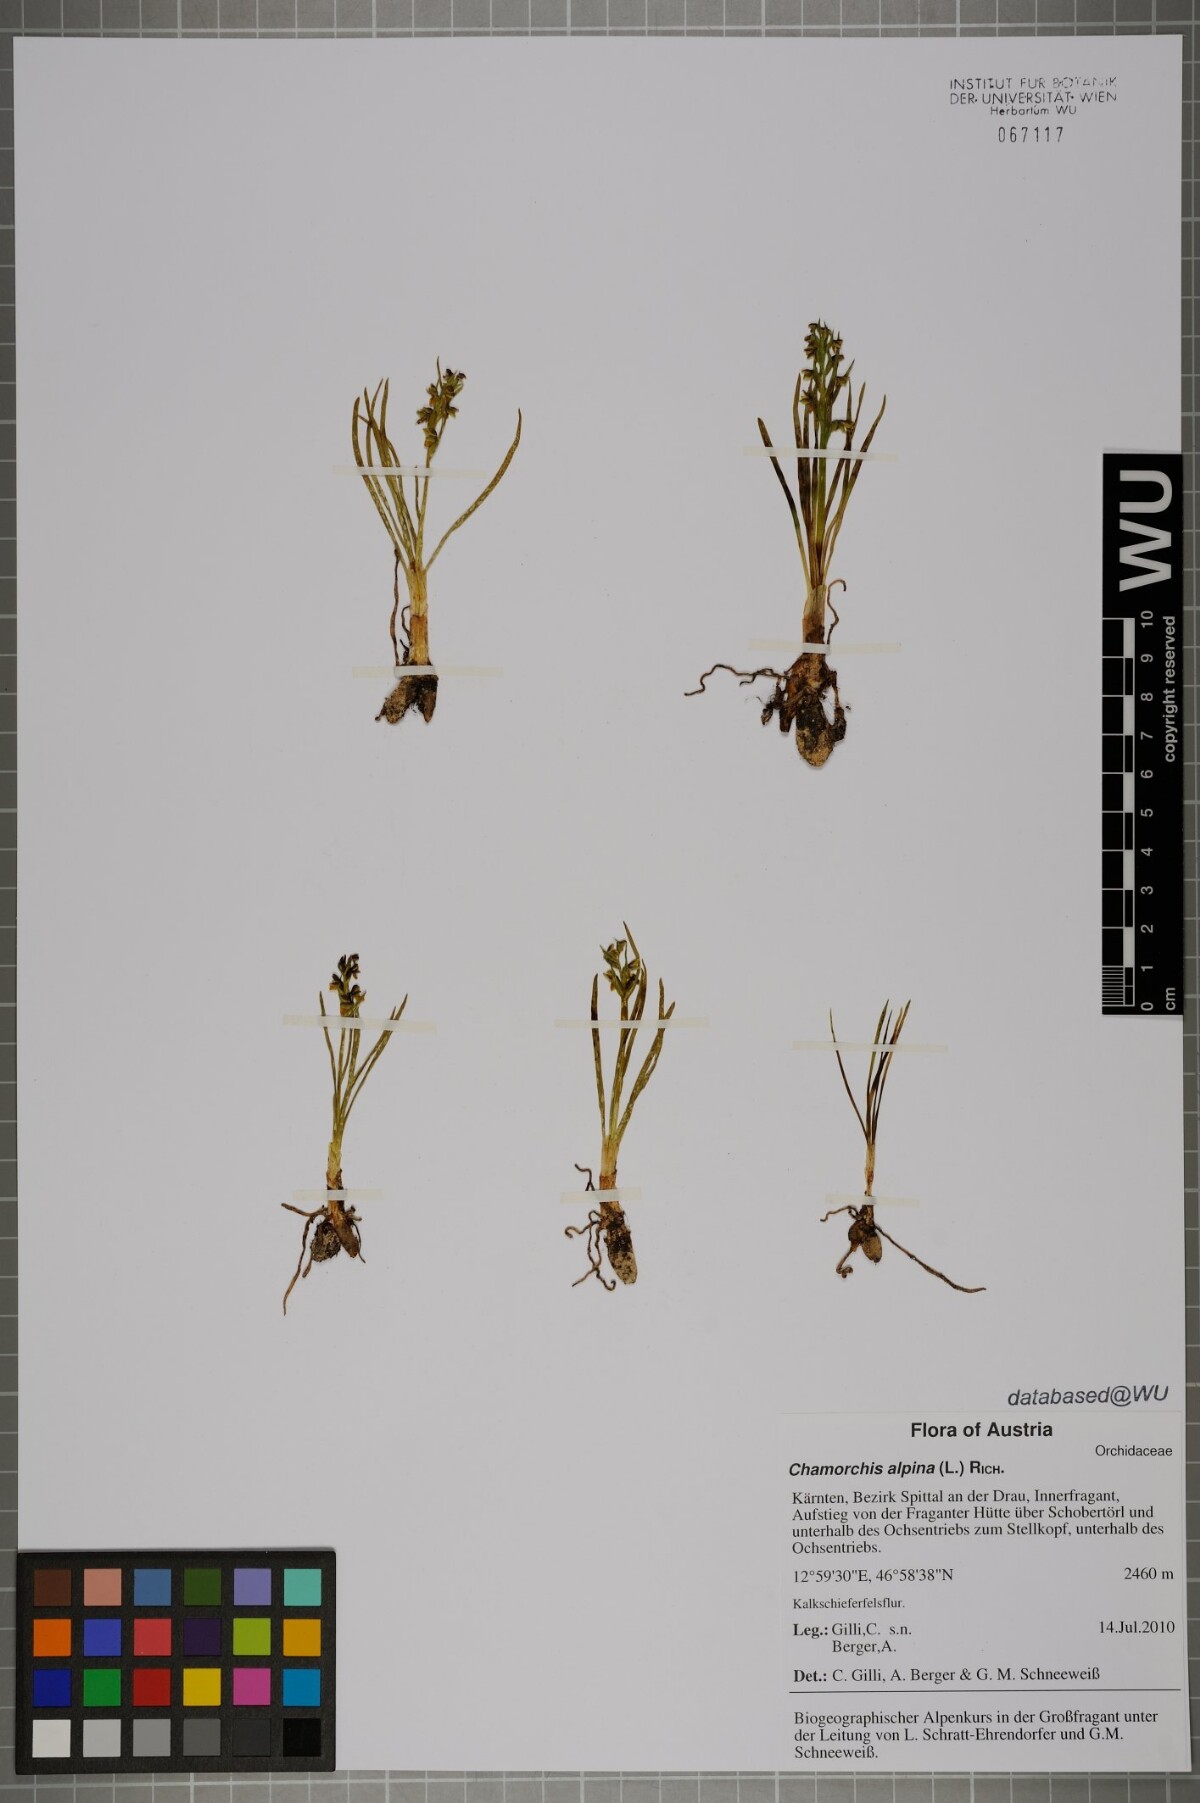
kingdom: Plantae
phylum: Tracheophyta
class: Liliopsida
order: Asparagales
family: Orchidaceae
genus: Chamorchis
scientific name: Chamorchis alpina
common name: Alpine chamorchis
